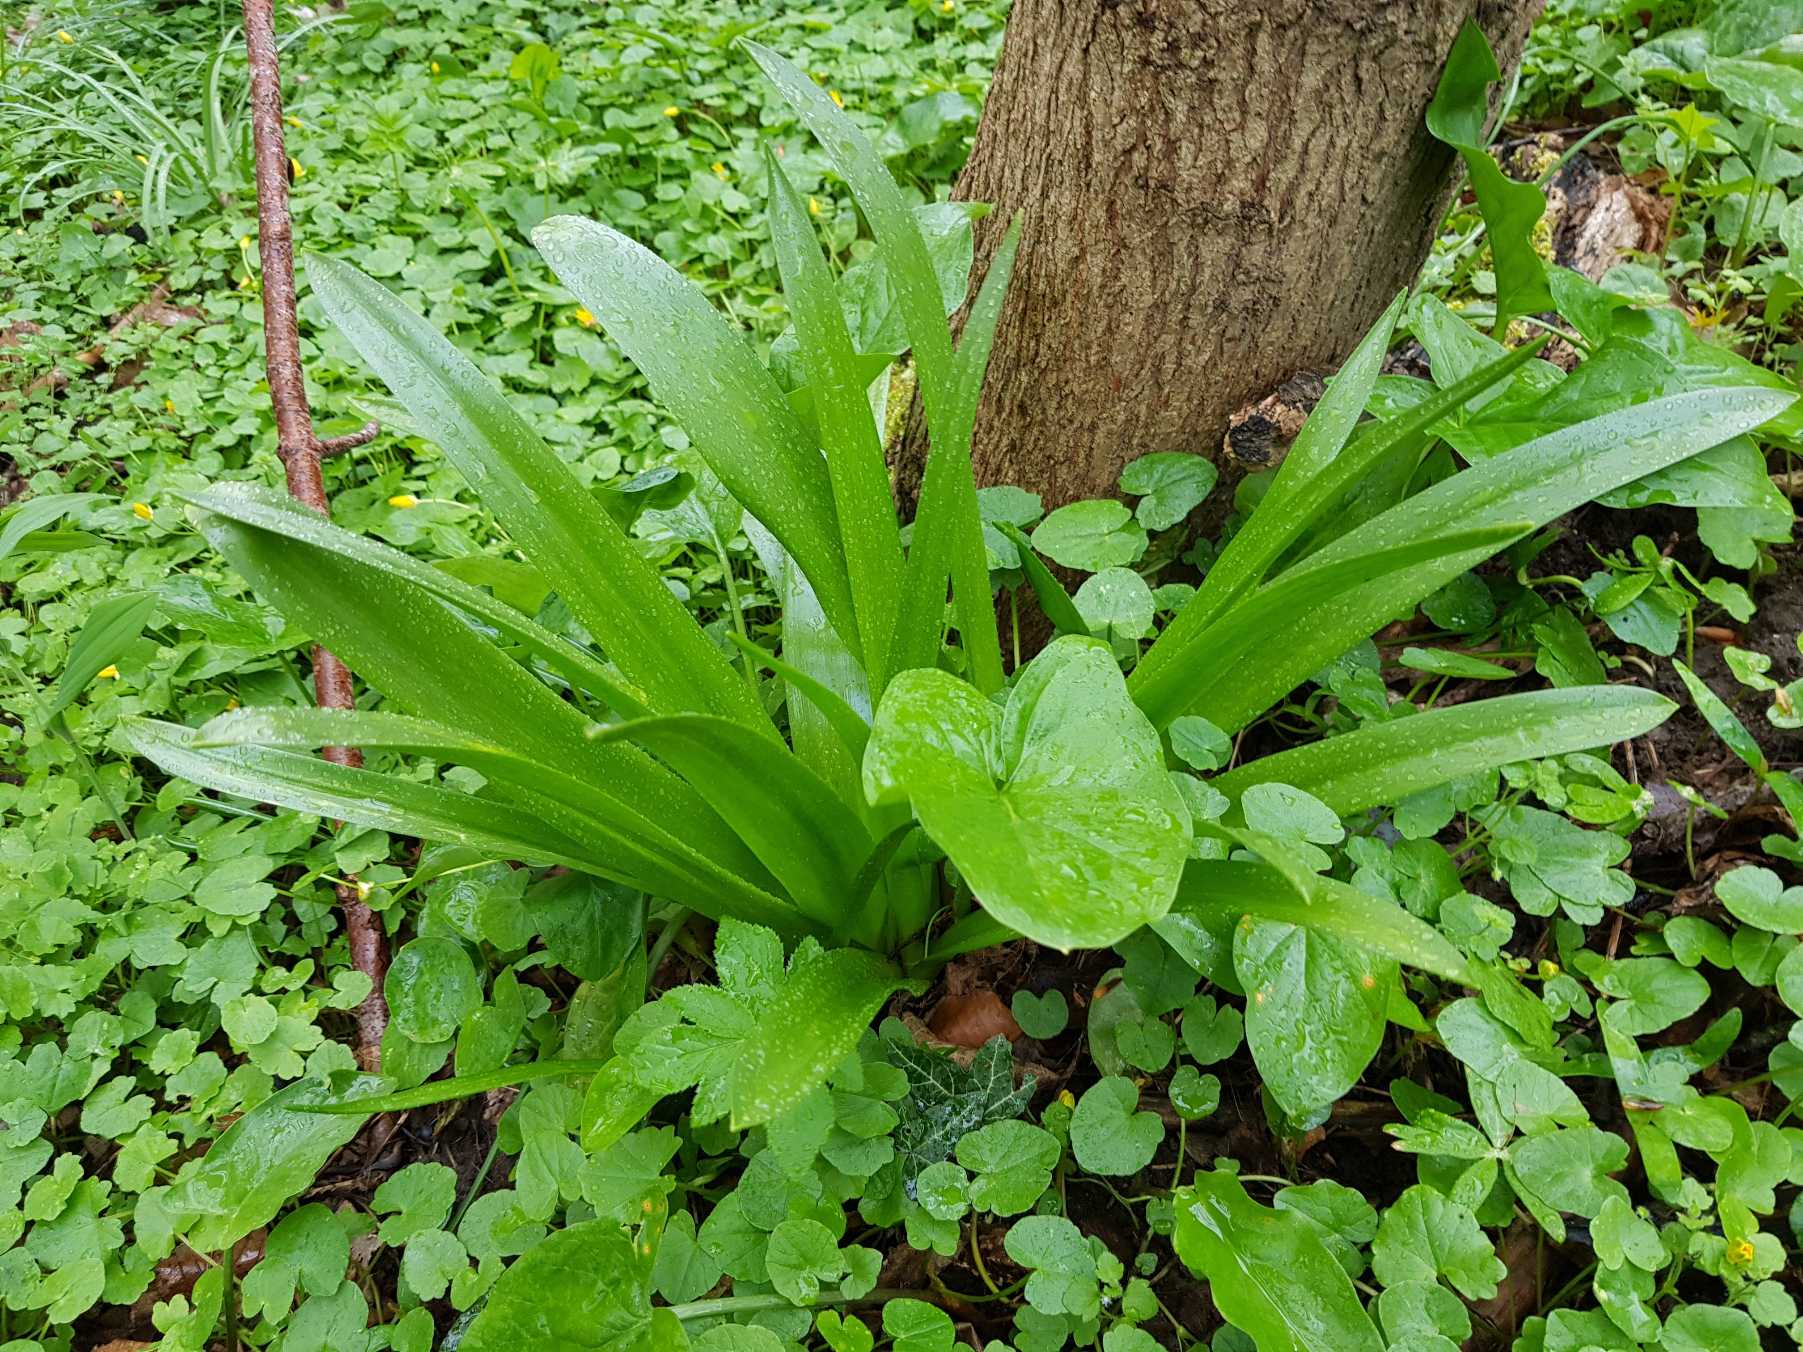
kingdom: Plantae
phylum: Tracheophyta
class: Liliopsida
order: Asparagales
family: Asparagaceae
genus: Hyacinthus
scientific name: Hyacinthus orientalis
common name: Hyacint
